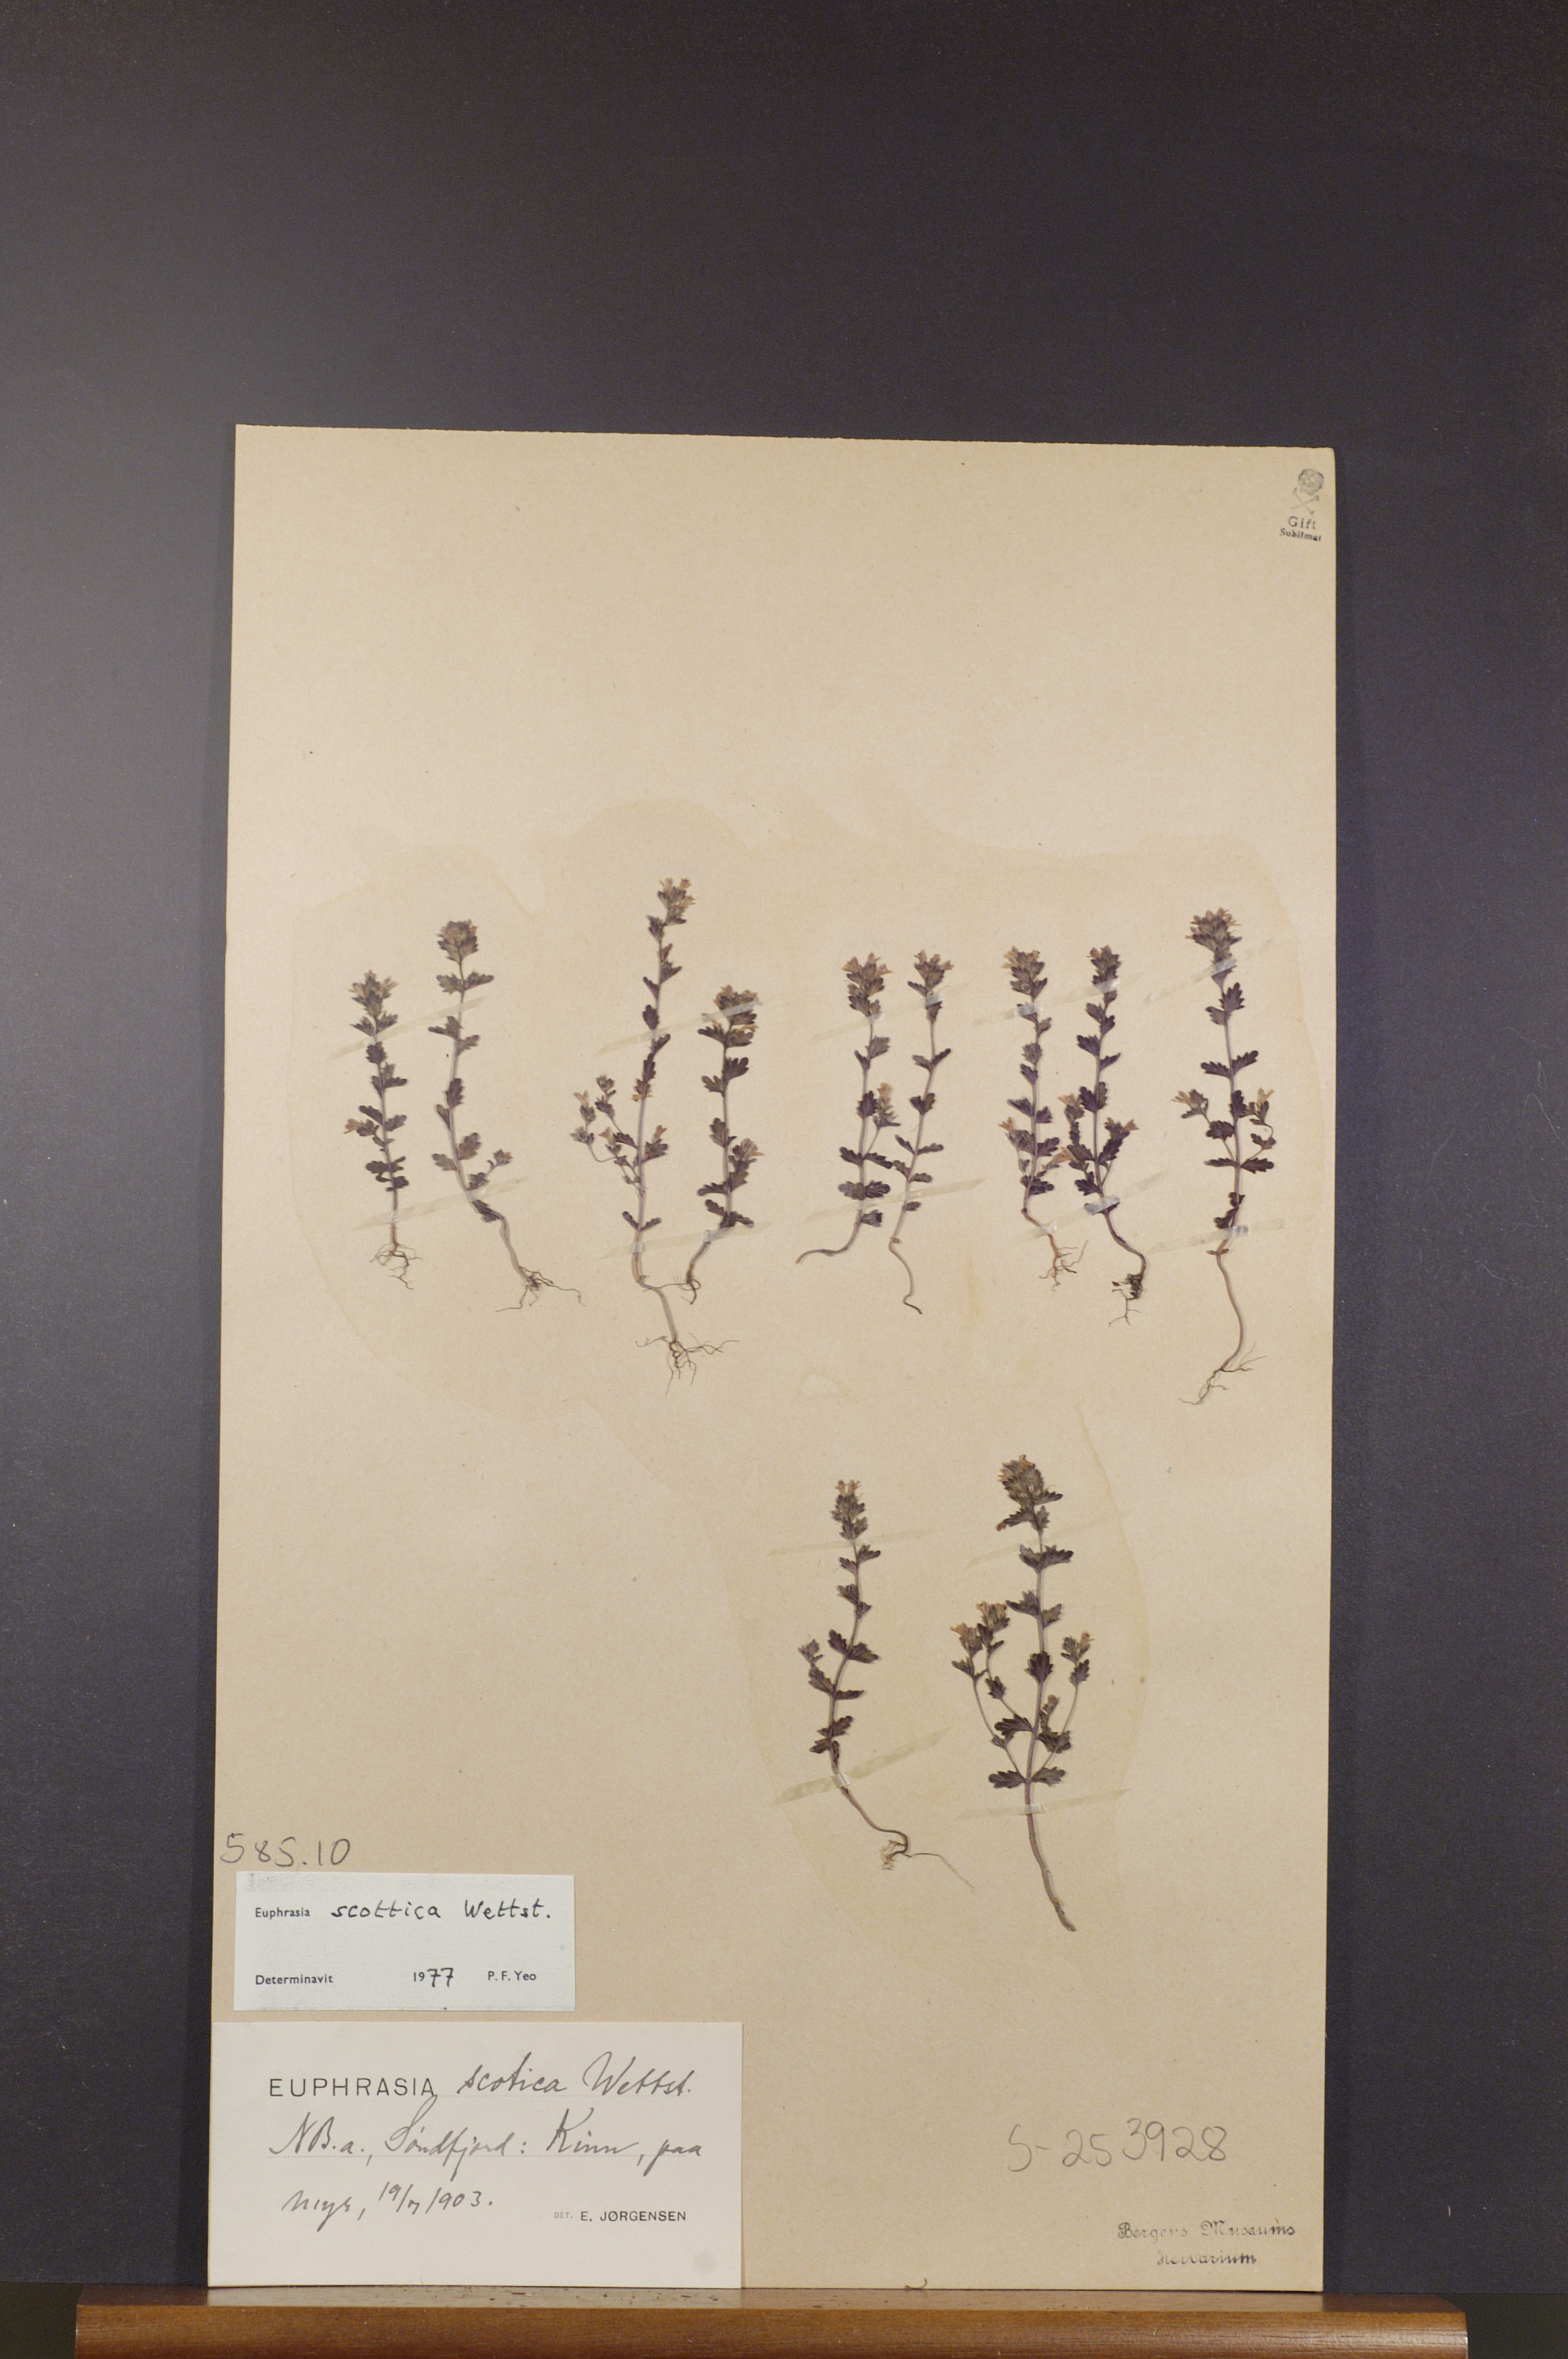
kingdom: Plantae
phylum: Tracheophyta
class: Magnoliopsida
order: Lamiales
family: Orobanchaceae
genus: Euphrasia
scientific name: Euphrasia scottica
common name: Slender scottish eyebright
